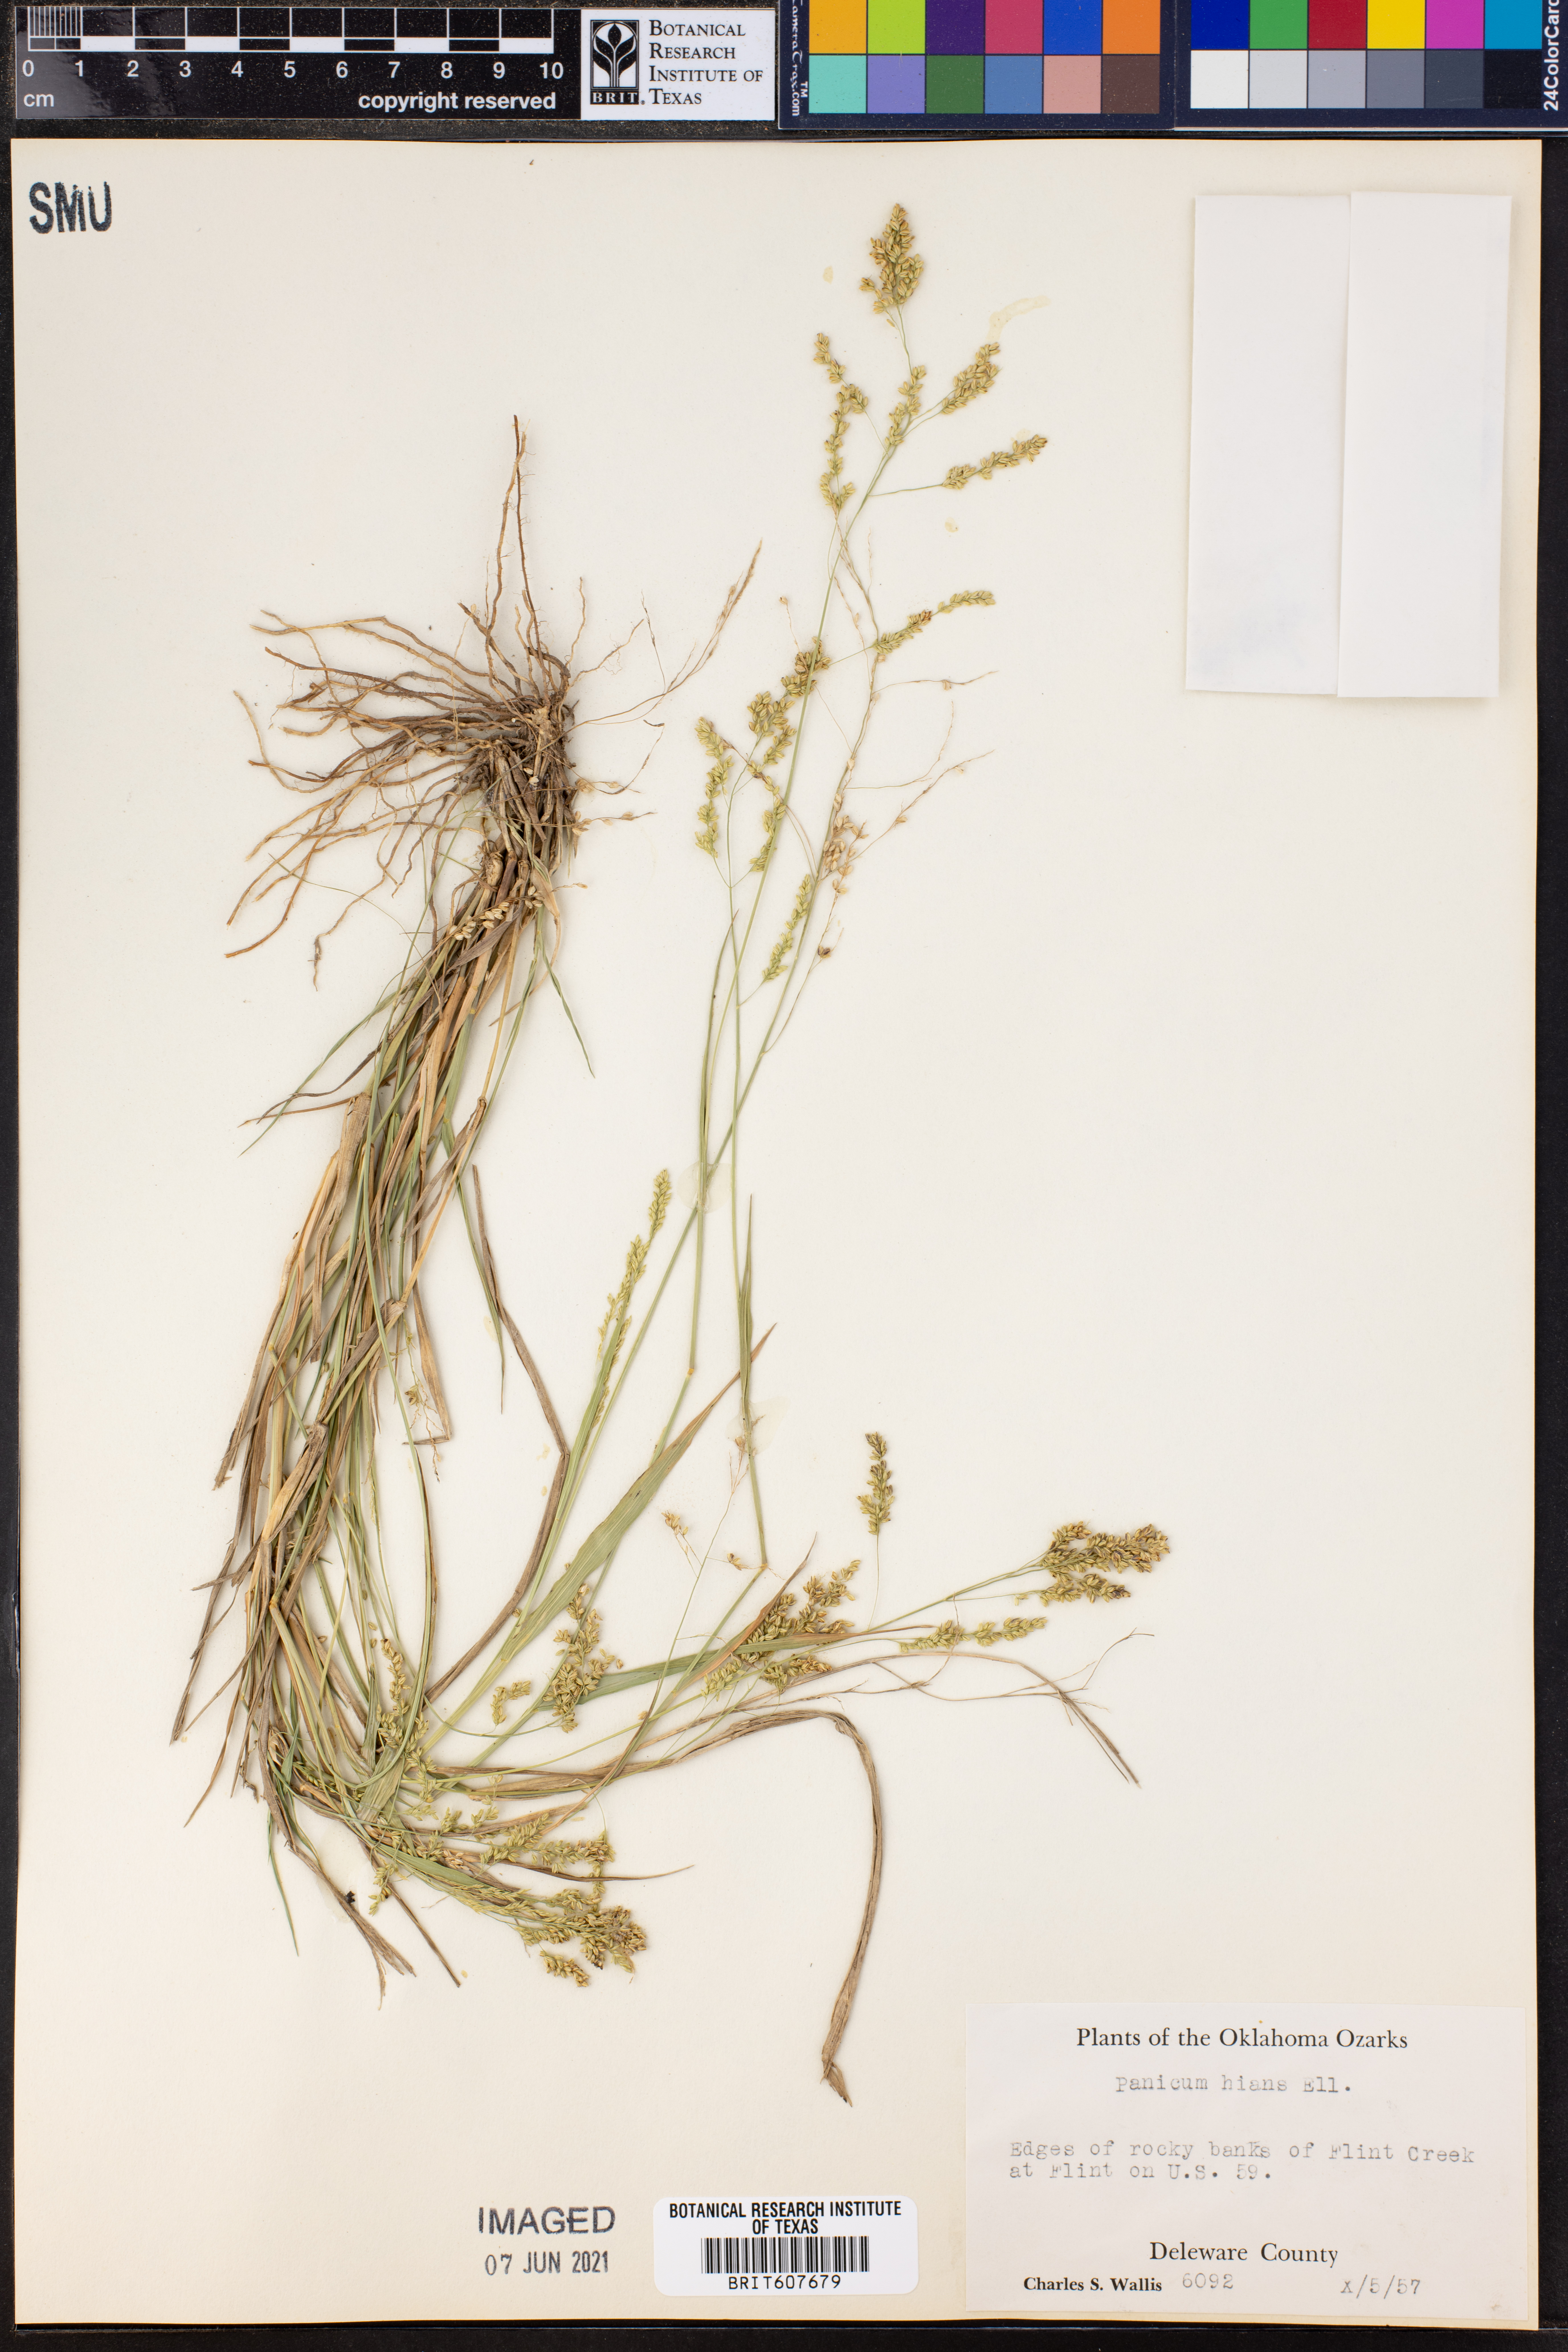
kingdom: Plantae
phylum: Tracheophyta
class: Liliopsida
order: Poales
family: Poaceae
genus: Coleataenia
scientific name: Coleataenia stenodes
